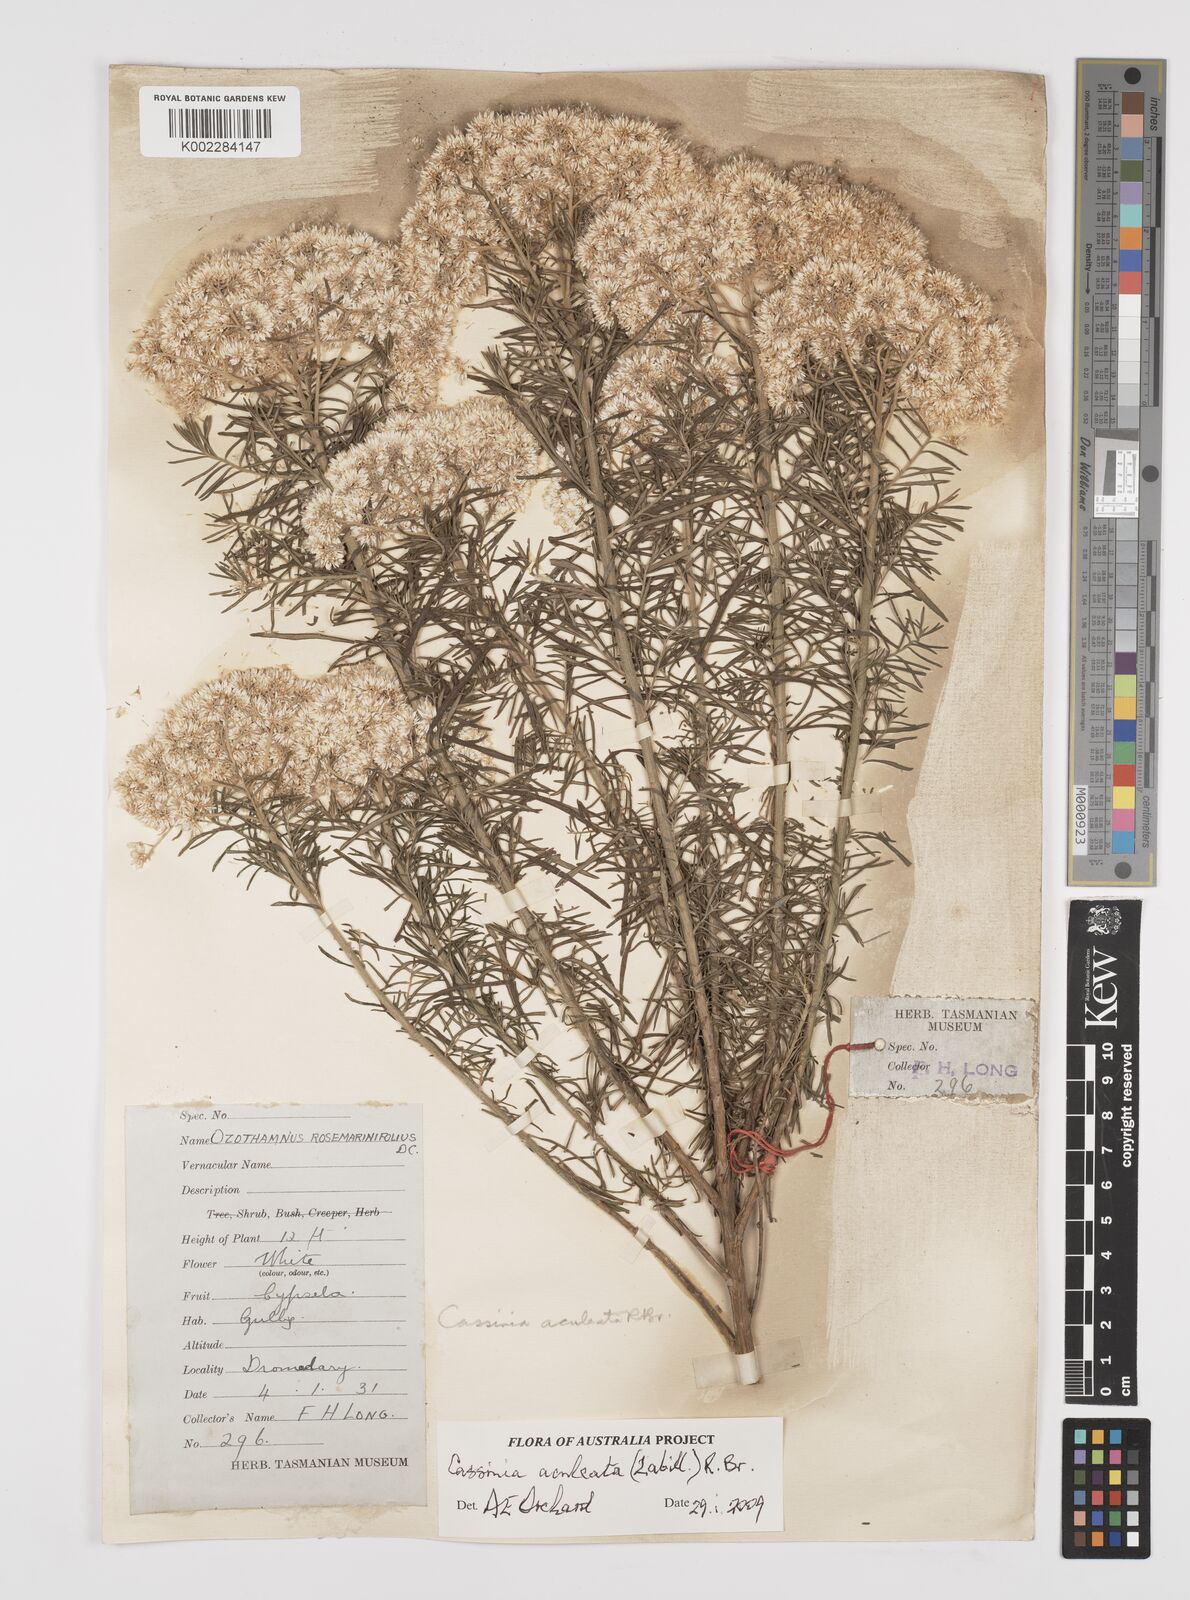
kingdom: Plantae
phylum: Tracheophyta
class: Magnoliopsida
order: Asterales
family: Asteraceae
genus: Cassinia
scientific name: Cassinia aculeata
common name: Australian tauhinu
